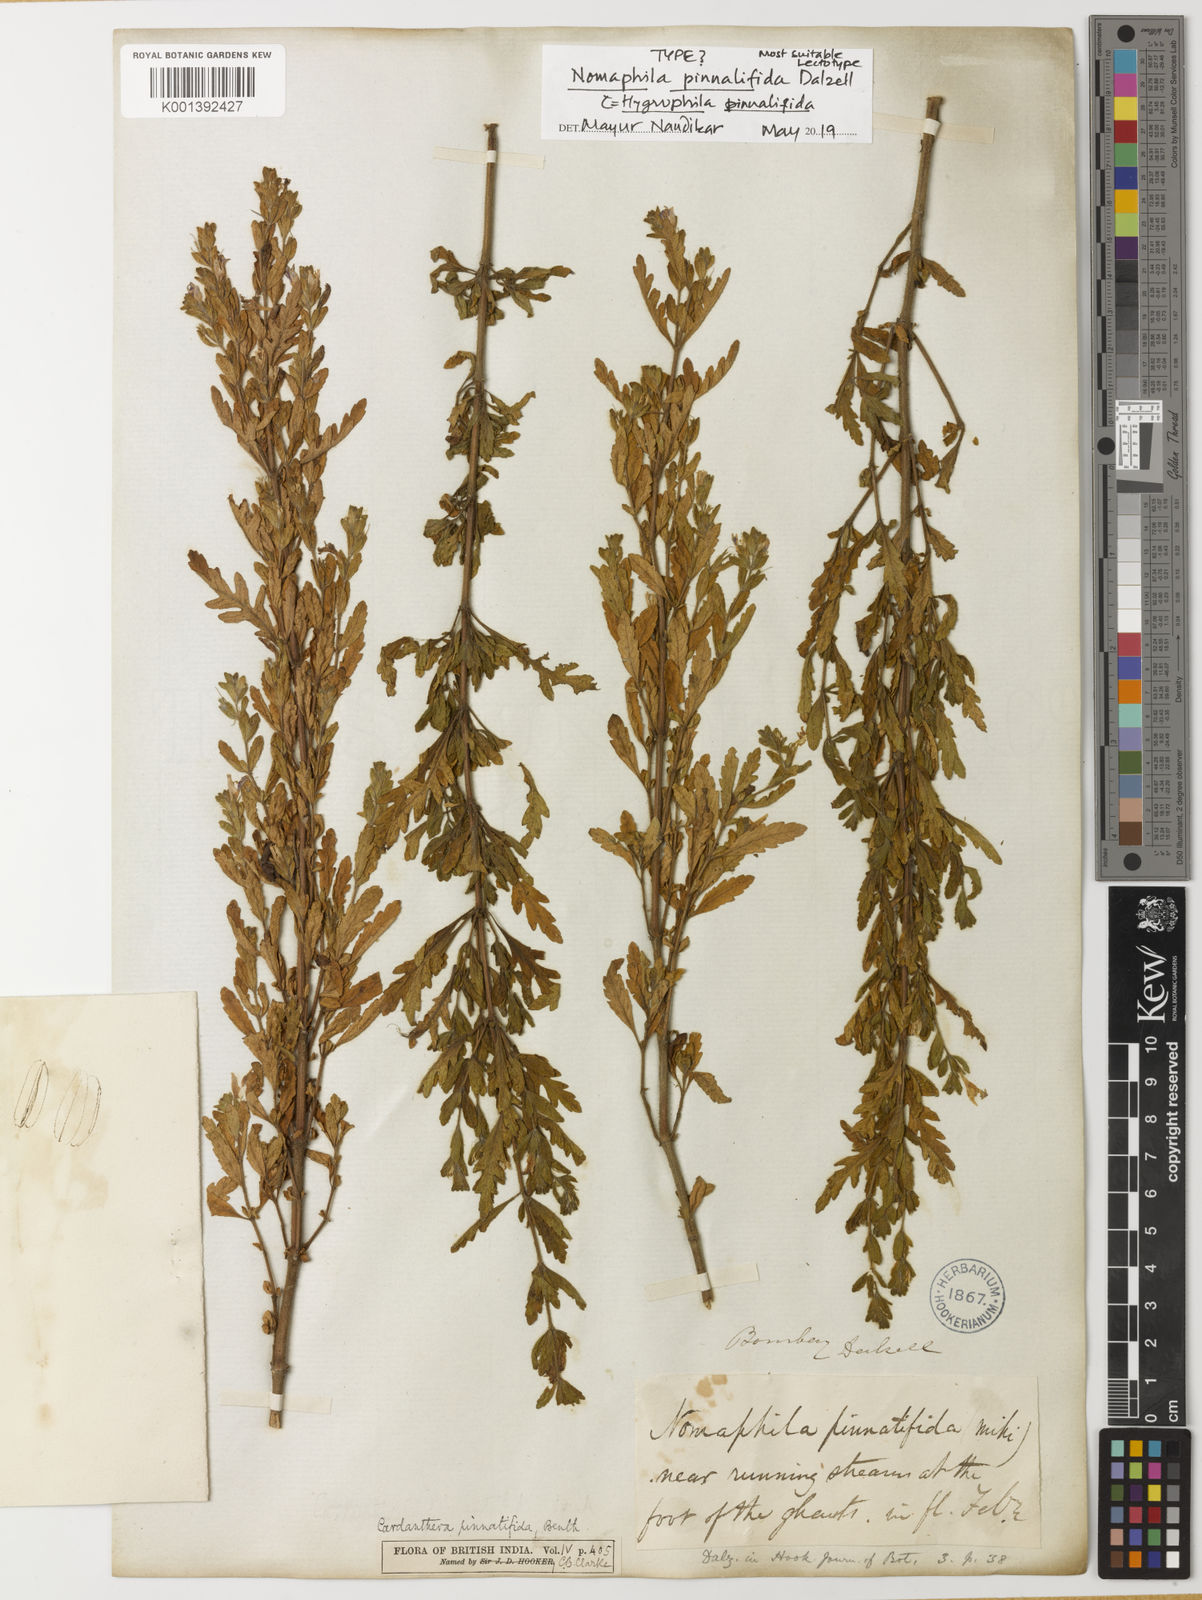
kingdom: Plantae
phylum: Tracheophyta
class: Magnoliopsida
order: Lamiales
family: Acanthaceae
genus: Hygrophila
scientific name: Hygrophila pinnatifida
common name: Indian swampweed
